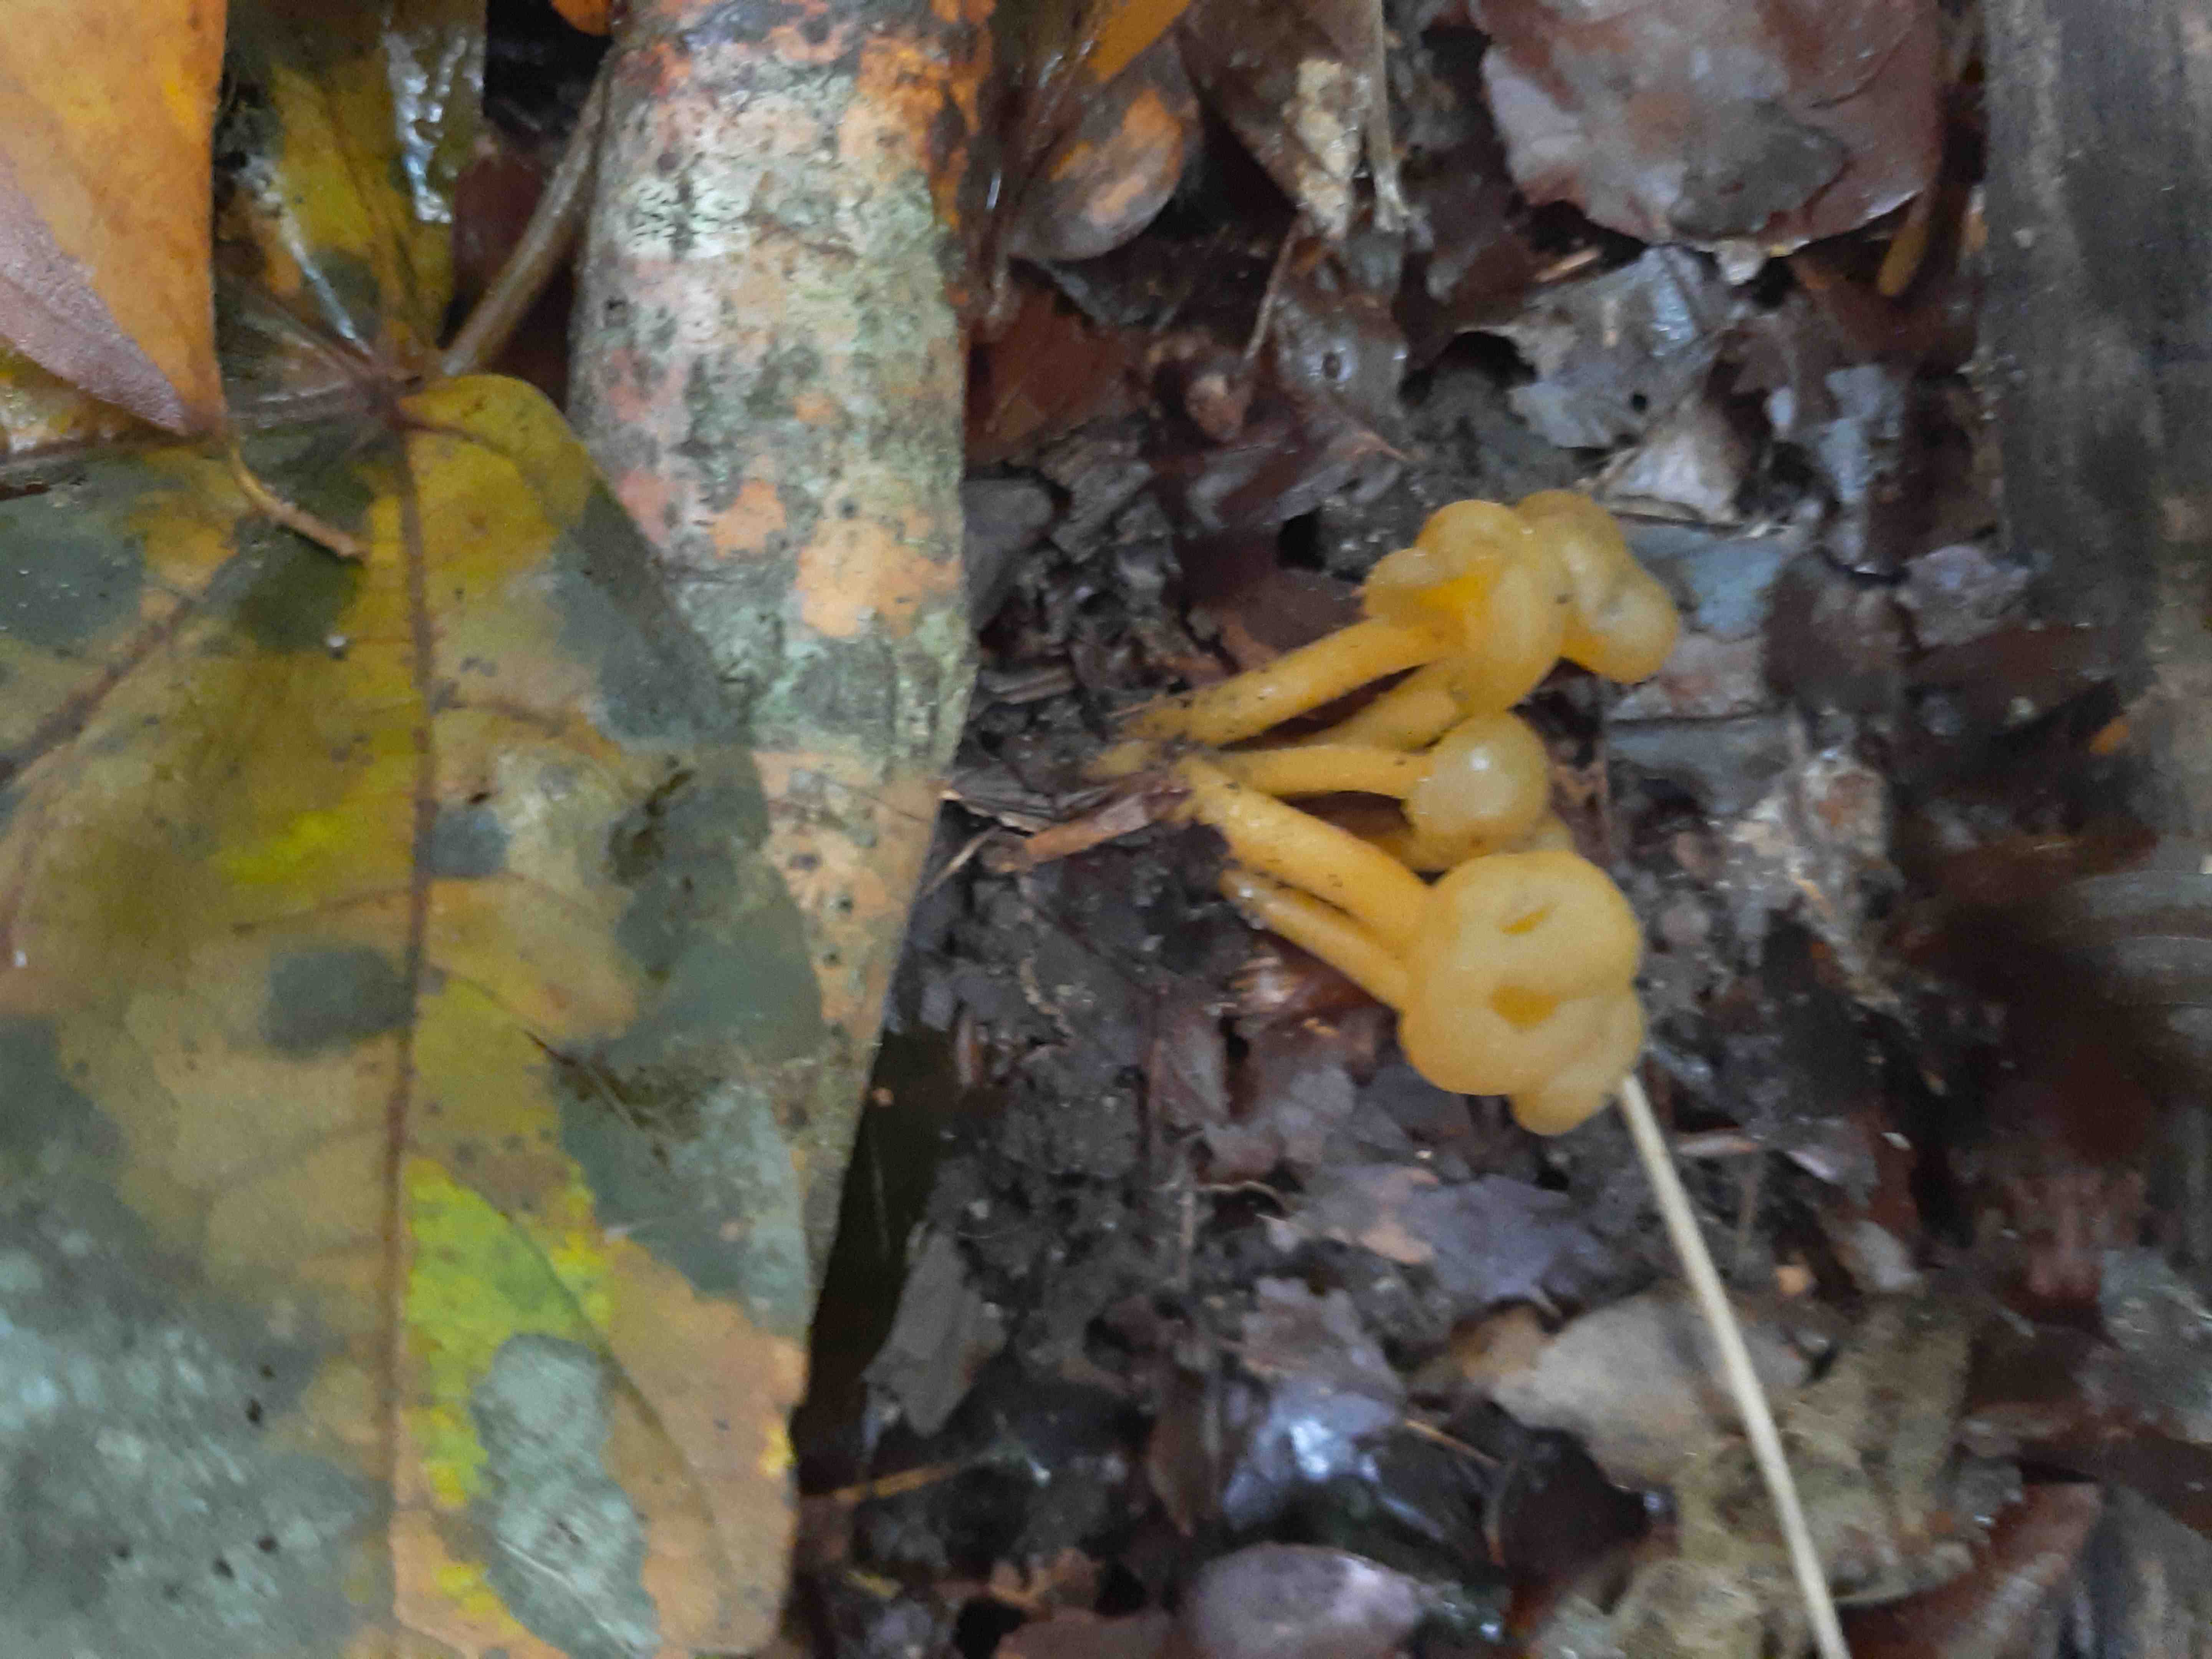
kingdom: Fungi
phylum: Ascomycota
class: Leotiomycetes
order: Leotiales
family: Leotiaceae
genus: Leotia
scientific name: Leotia lubrica
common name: ravsvamp
